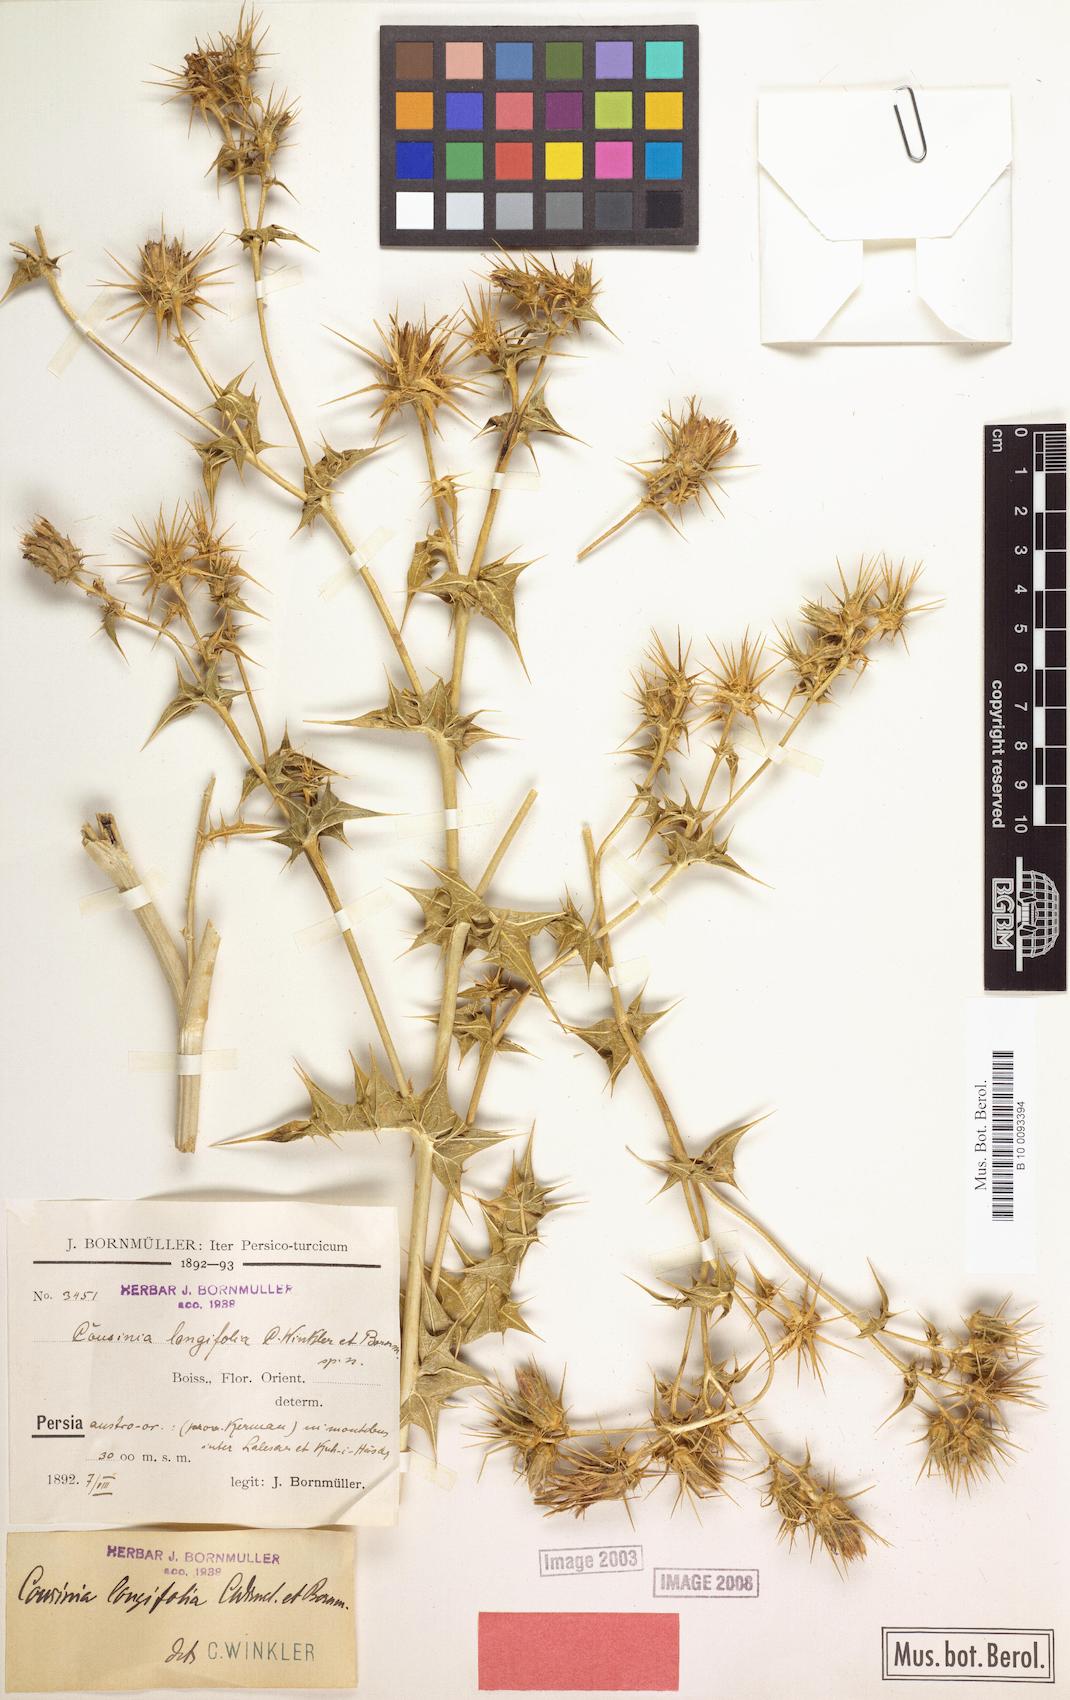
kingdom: Plantae
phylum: Tracheophyta
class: Magnoliopsida
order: Asterales
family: Asteraceae
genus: Cousinia
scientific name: Cousinia longifolia
